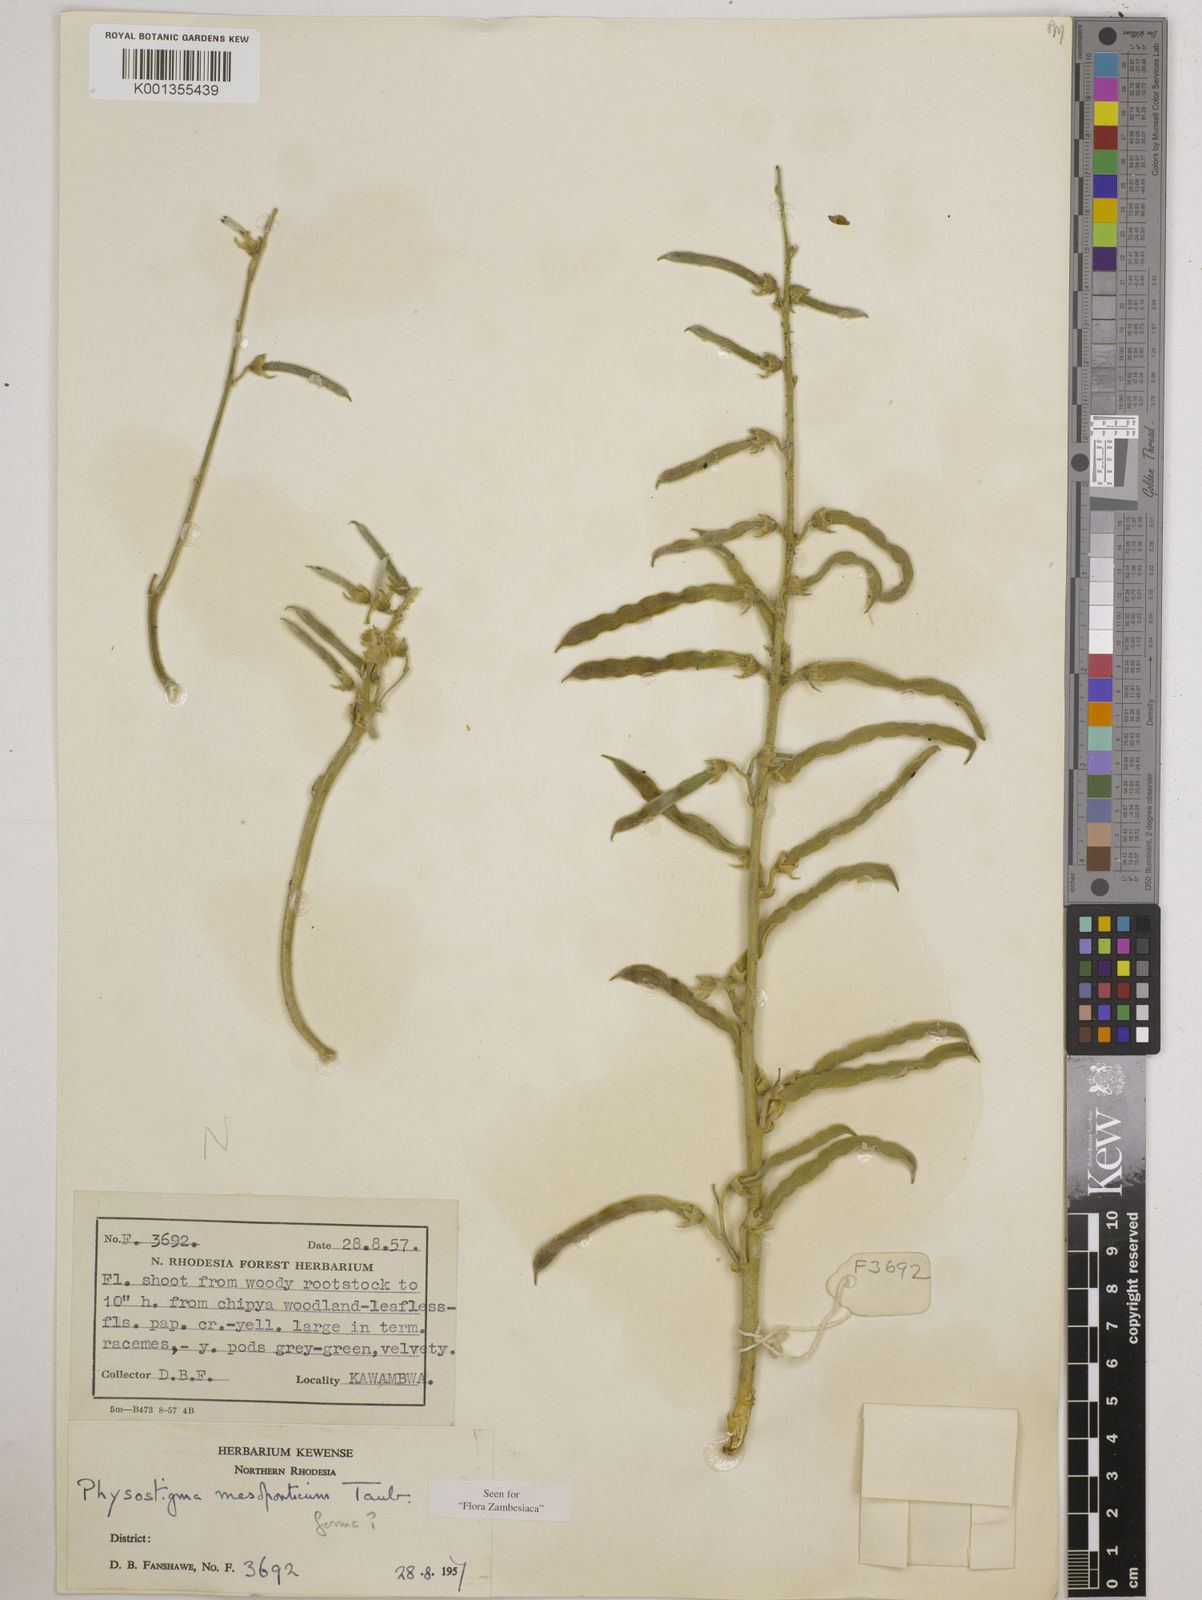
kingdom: Plantae
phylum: Tracheophyta
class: Magnoliopsida
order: Fabales
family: Fabaceae
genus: Physostigma
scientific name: Physostigma mesoponticum
